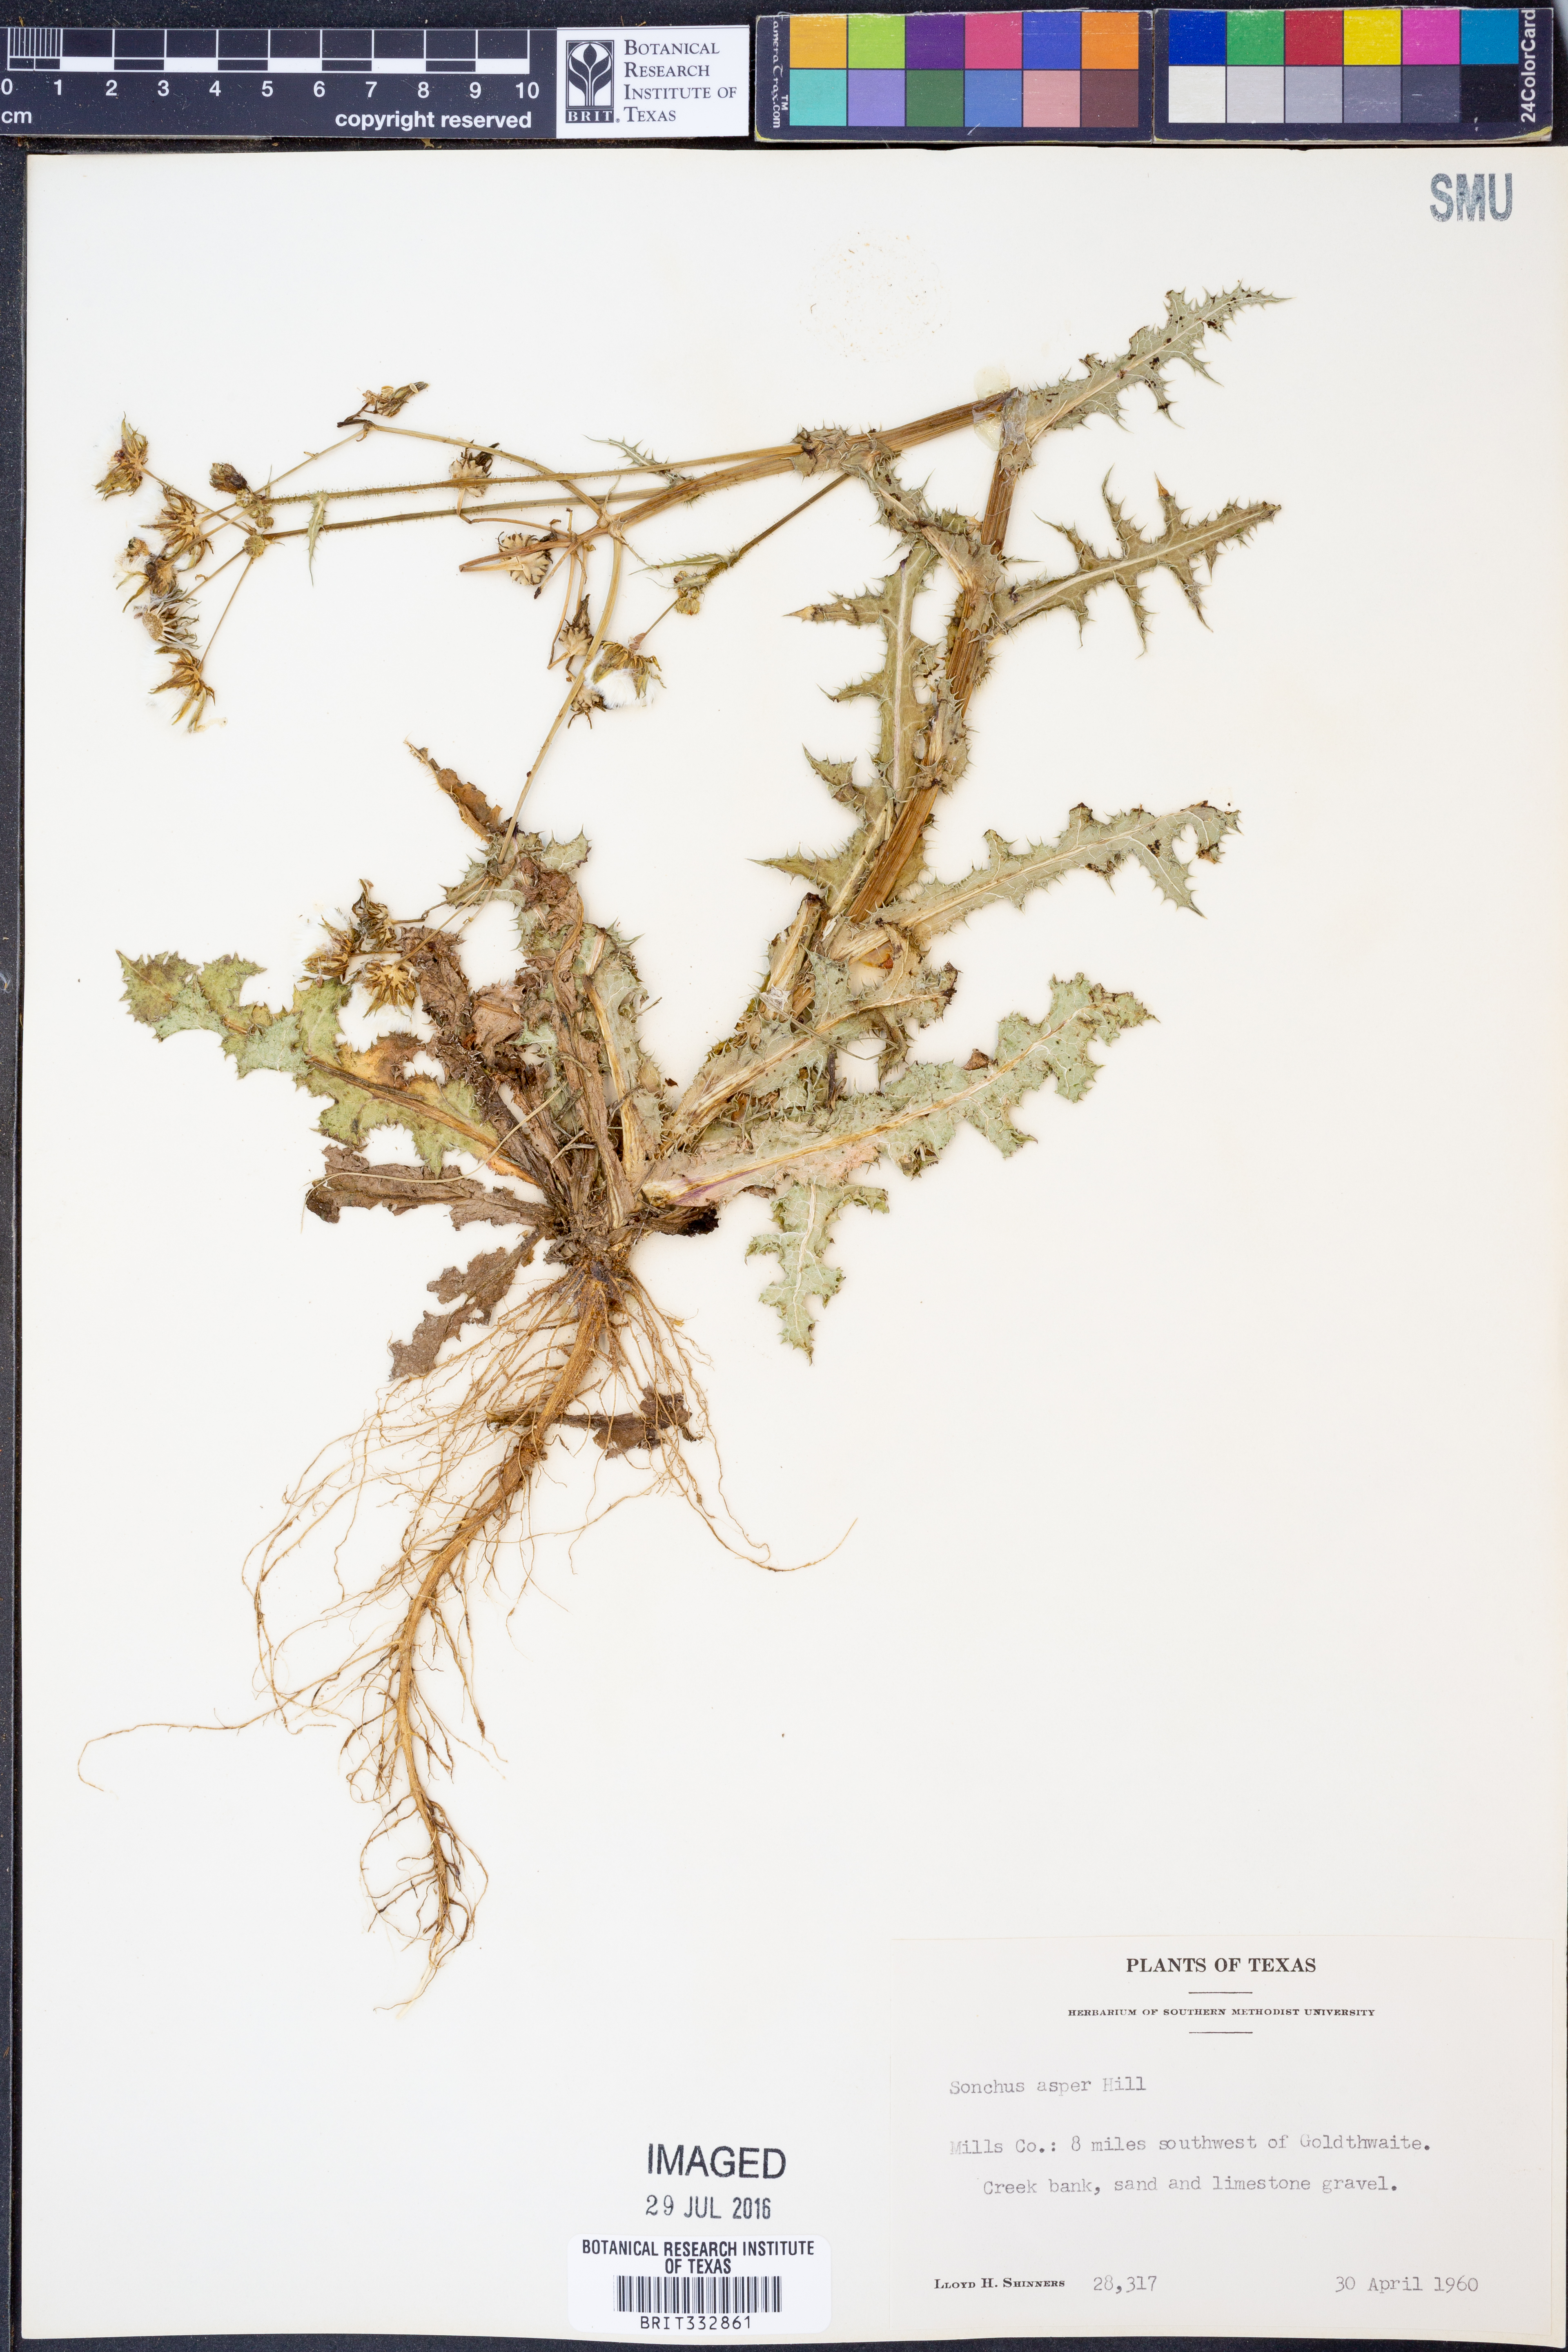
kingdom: Plantae
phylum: Tracheophyta
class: Magnoliopsida
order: Asterales
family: Asteraceae
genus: Sonchus
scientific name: Sonchus asper
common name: Prickly sow-thistle
